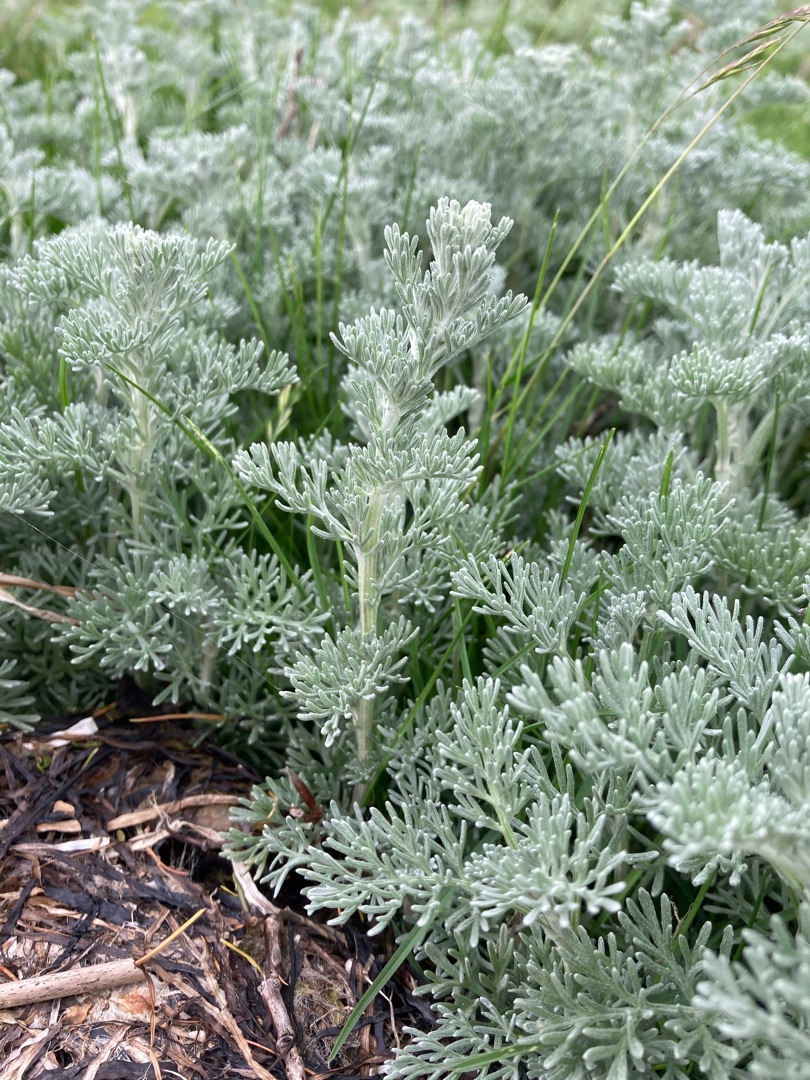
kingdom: Plantae
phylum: Tracheophyta
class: Magnoliopsida
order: Asterales
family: Asteraceae
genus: Artemisia
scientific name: Artemisia maritima
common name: Strandmalurt
